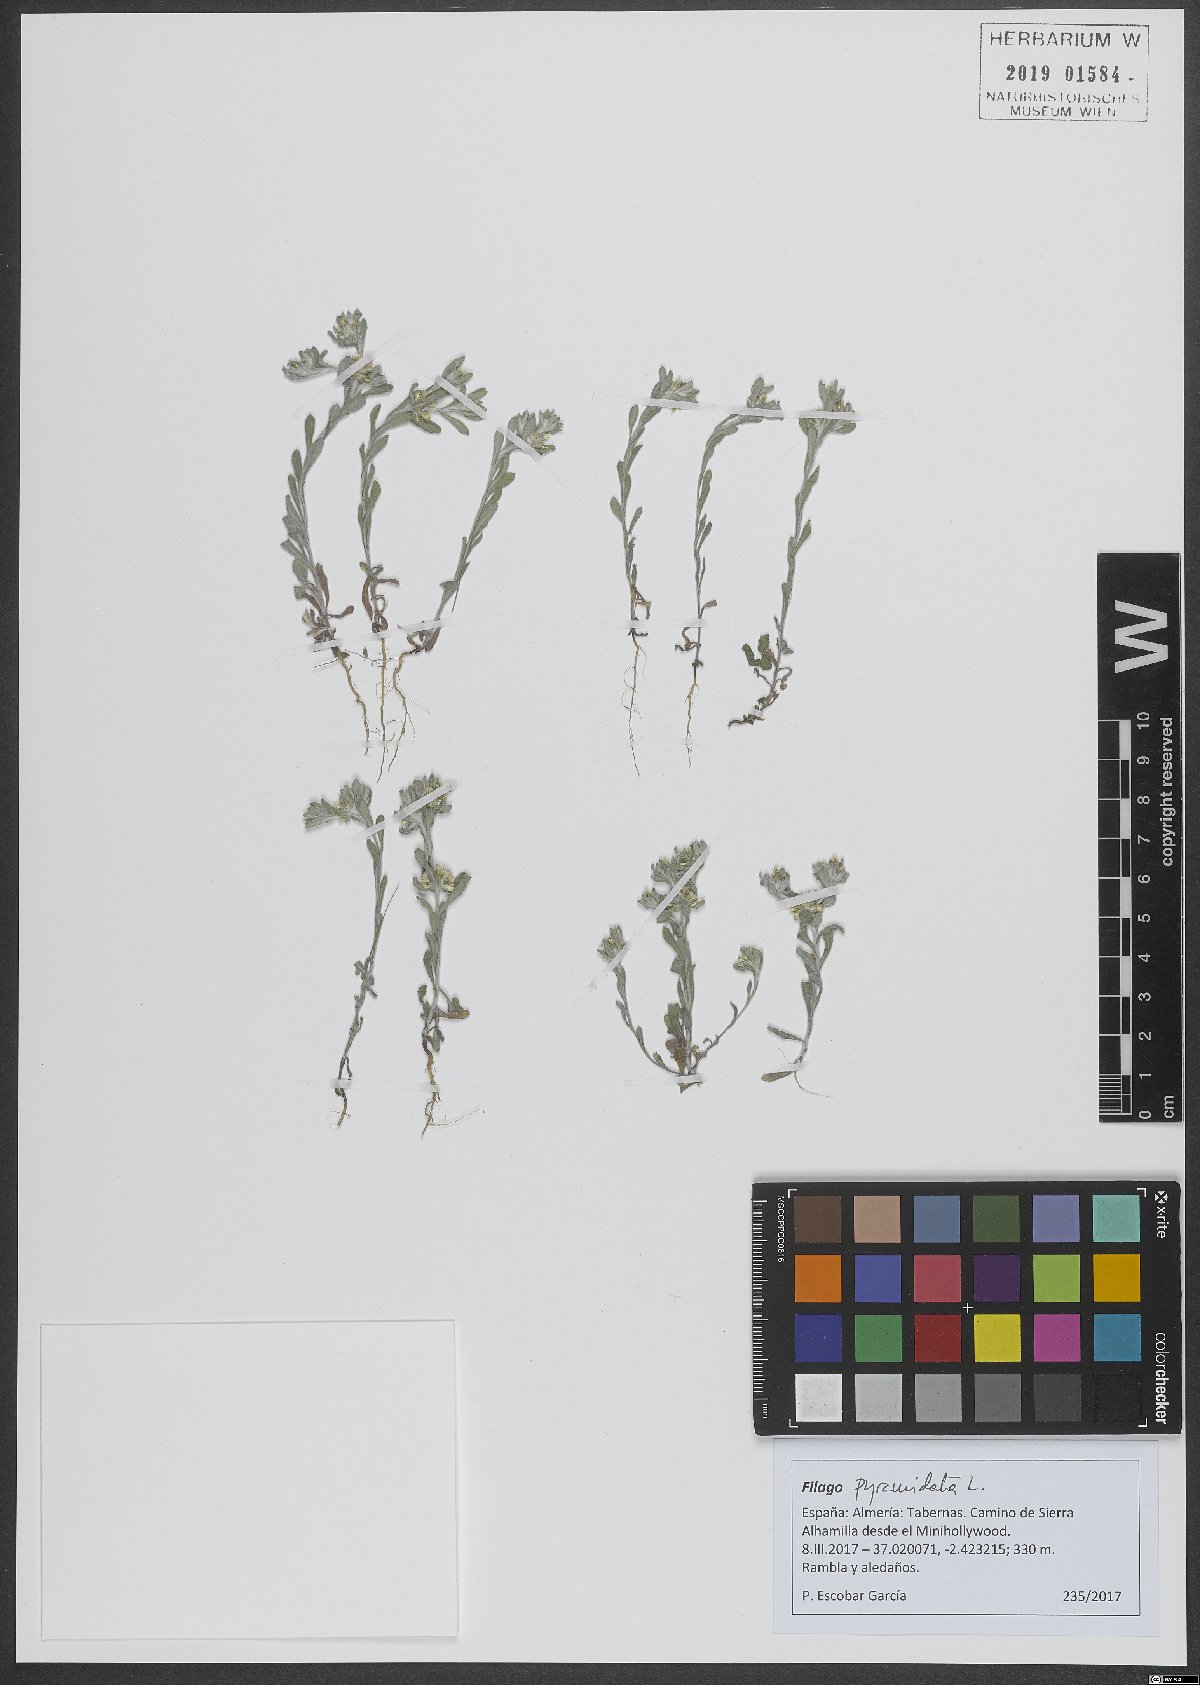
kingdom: Plantae
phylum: Tracheophyta
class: Magnoliopsida
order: Asterales
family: Asteraceae
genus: Filago
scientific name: Filago pyramidata
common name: Broad-leaved cudweed
